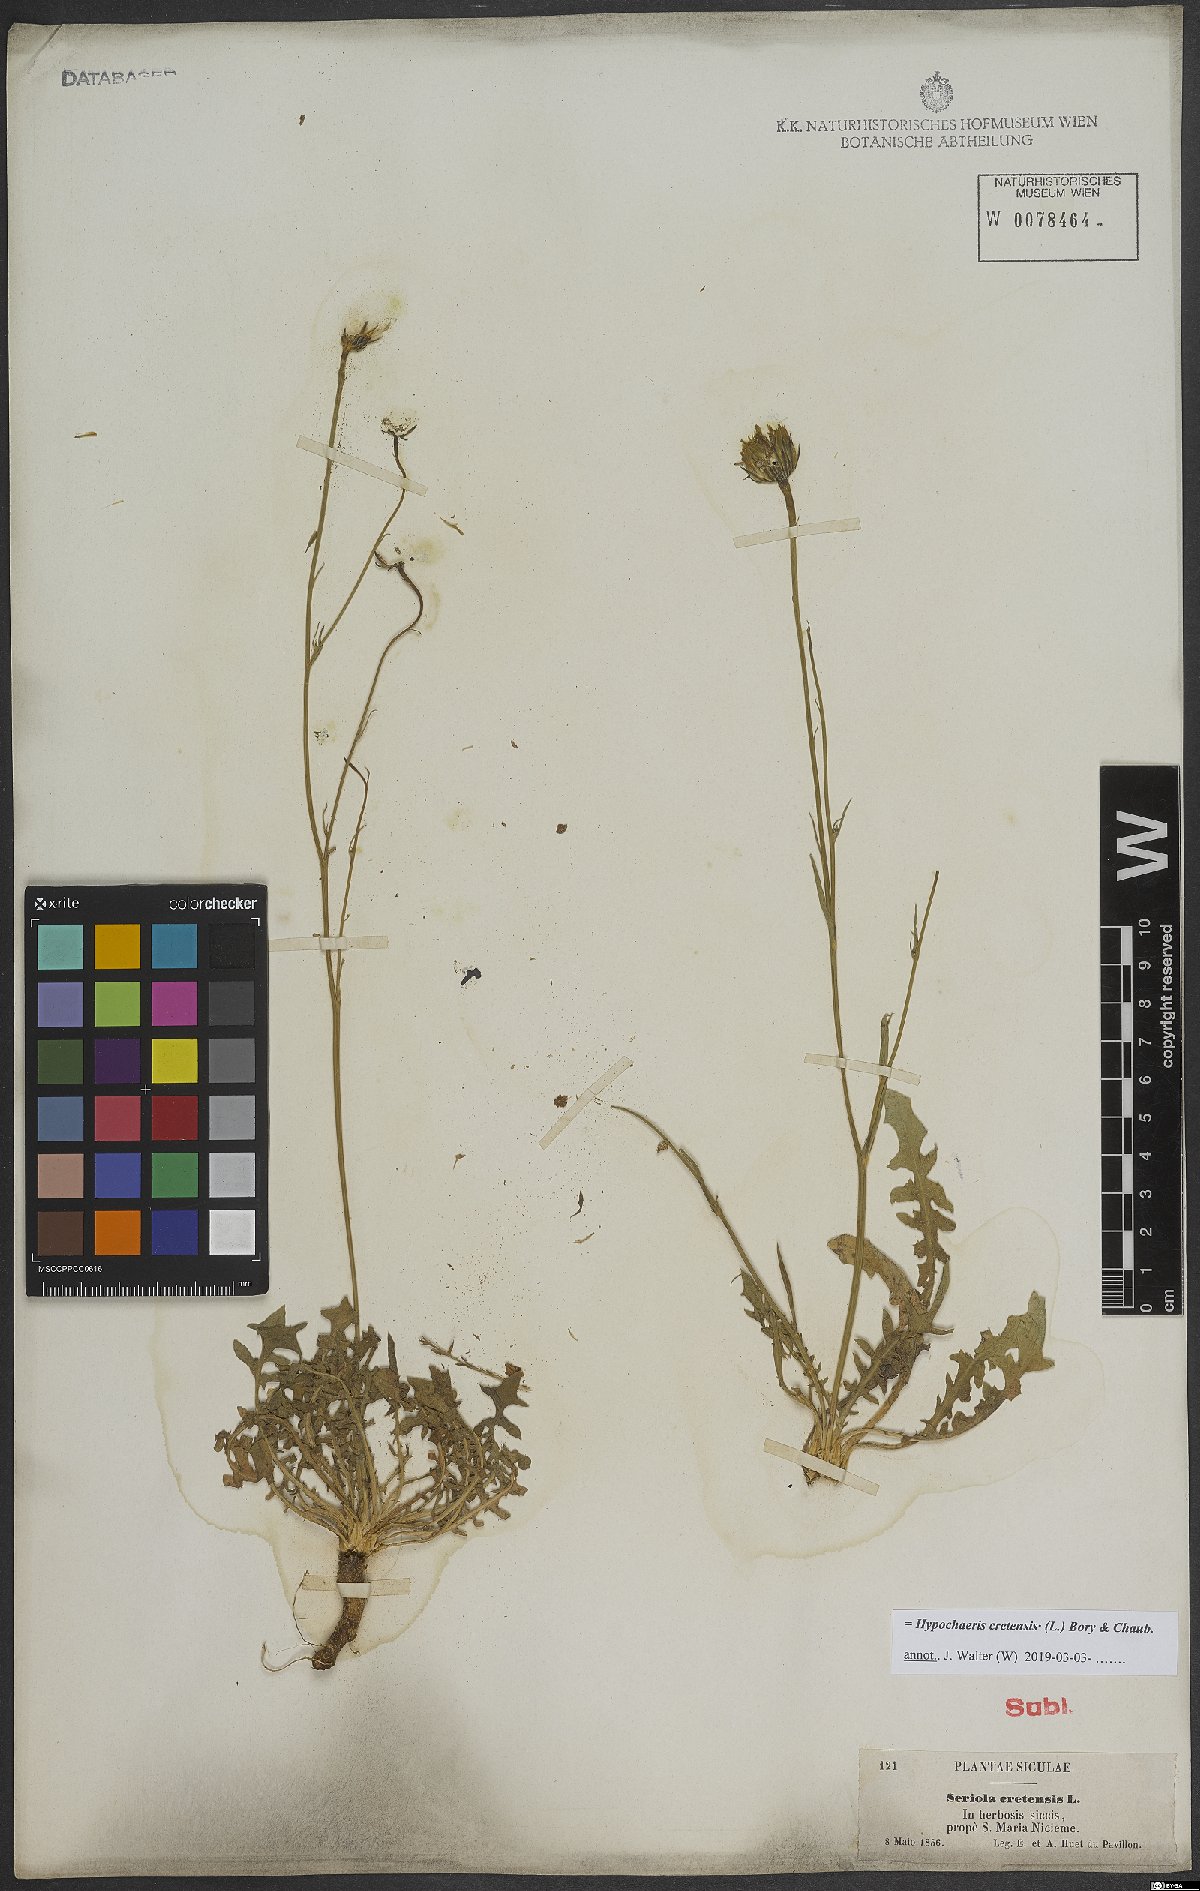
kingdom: Plantae
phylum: Tracheophyta
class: Magnoliopsida
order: Asterales
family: Asteraceae
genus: Hypochaeris
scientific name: Hypochaeris cretensis
